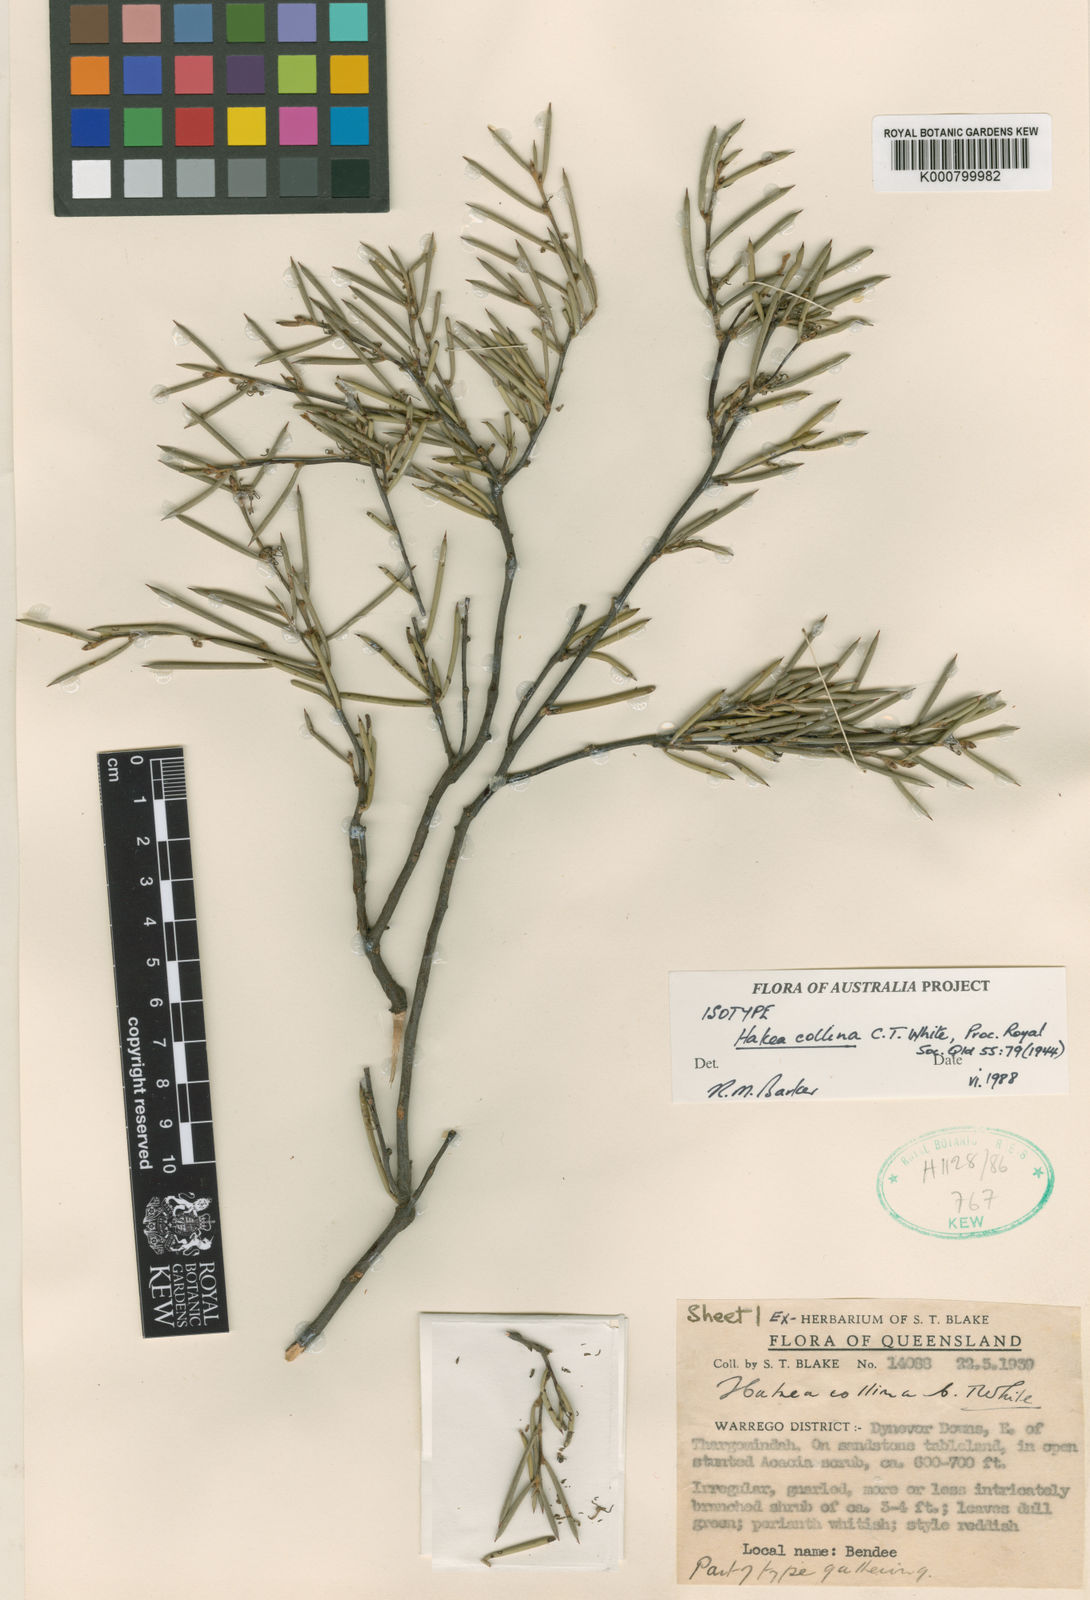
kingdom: Plantae
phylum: Tracheophyta
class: Magnoliopsida
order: Proteales
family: Proteaceae
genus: Hakea
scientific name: Hakea collina
